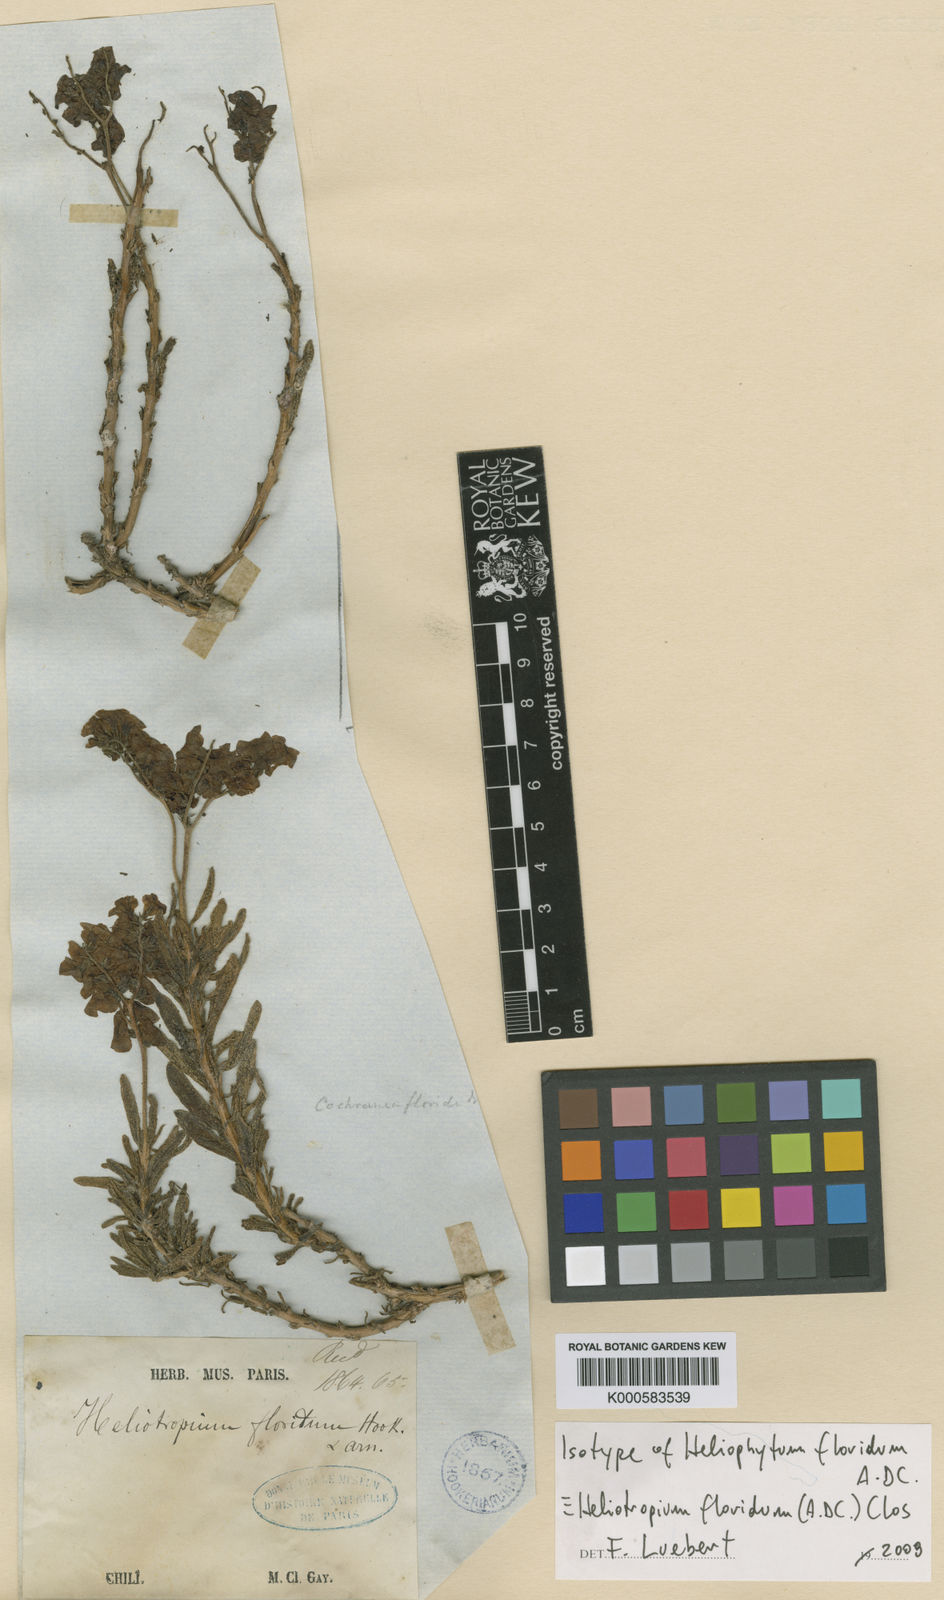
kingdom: Plantae
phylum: Tracheophyta
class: Magnoliopsida
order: Boraginales
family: Heliotropiaceae
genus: Heliotropium
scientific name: Heliotropium floridum
